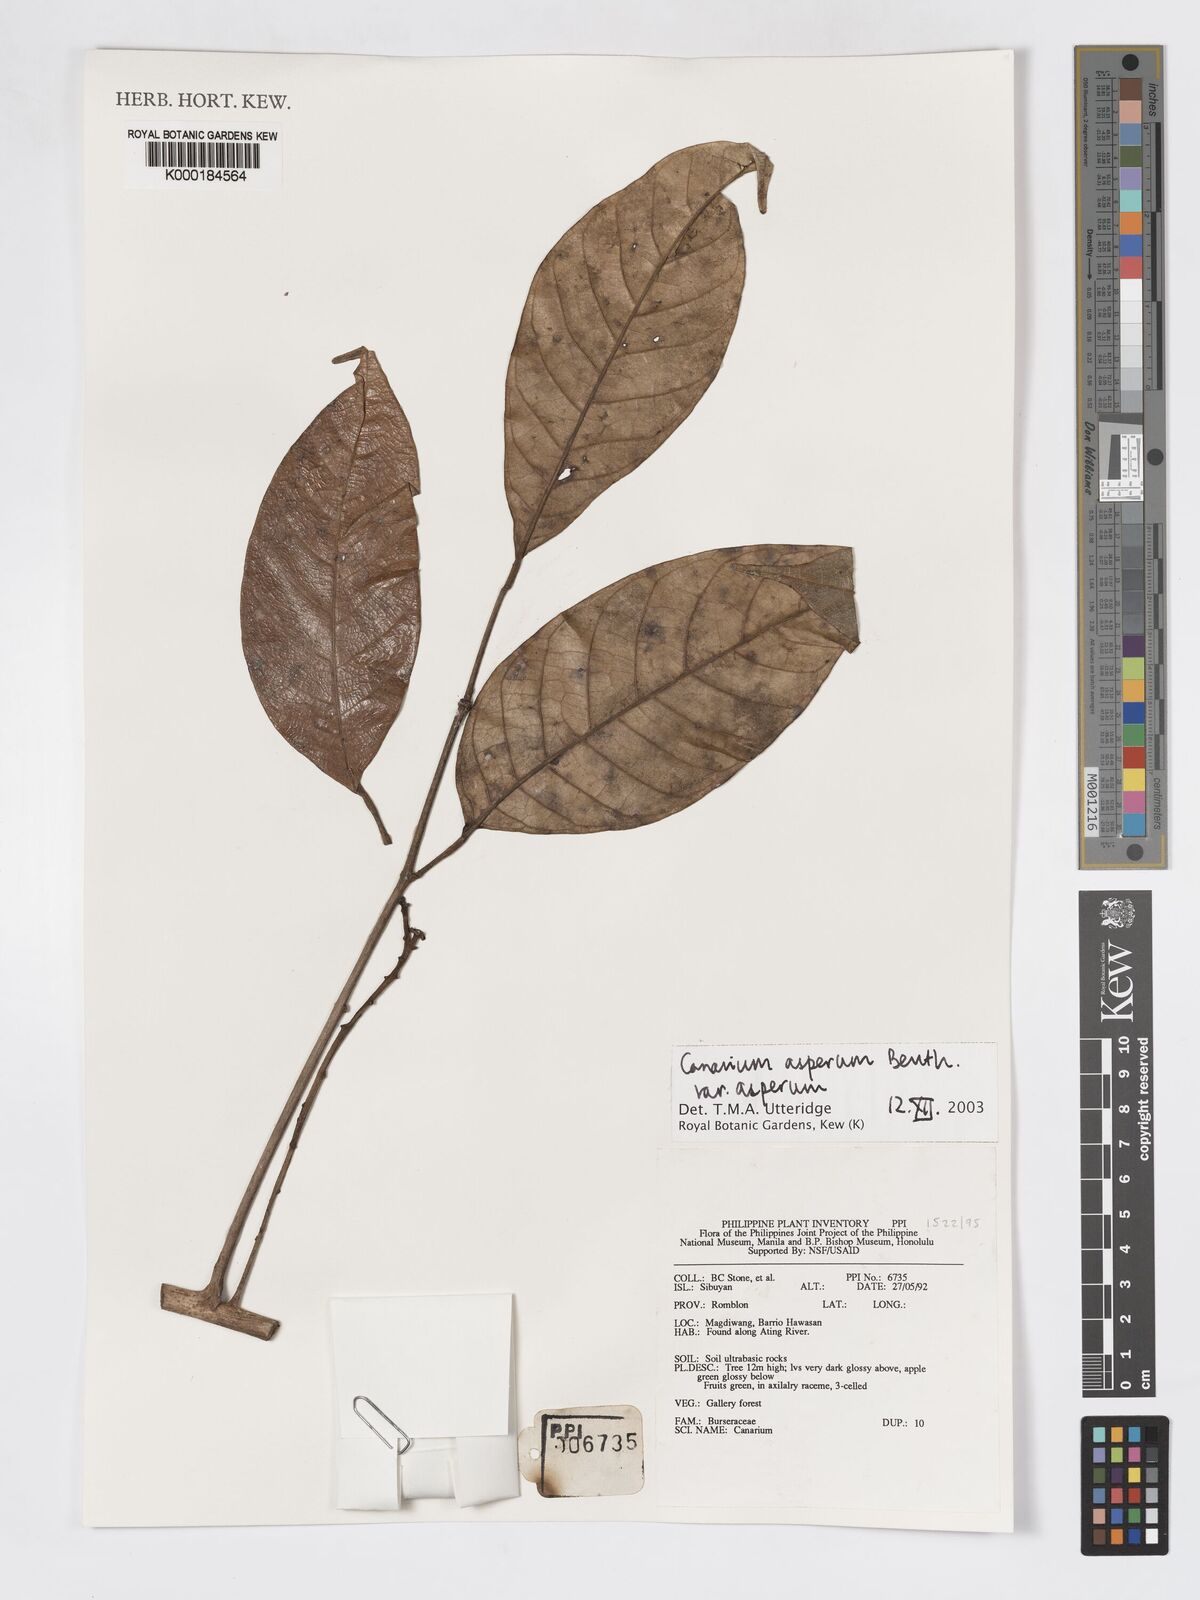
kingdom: Plantae
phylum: Tracheophyta
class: Magnoliopsida
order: Sapindales
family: Burseraceae
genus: Canarium
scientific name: Canarium asperum
